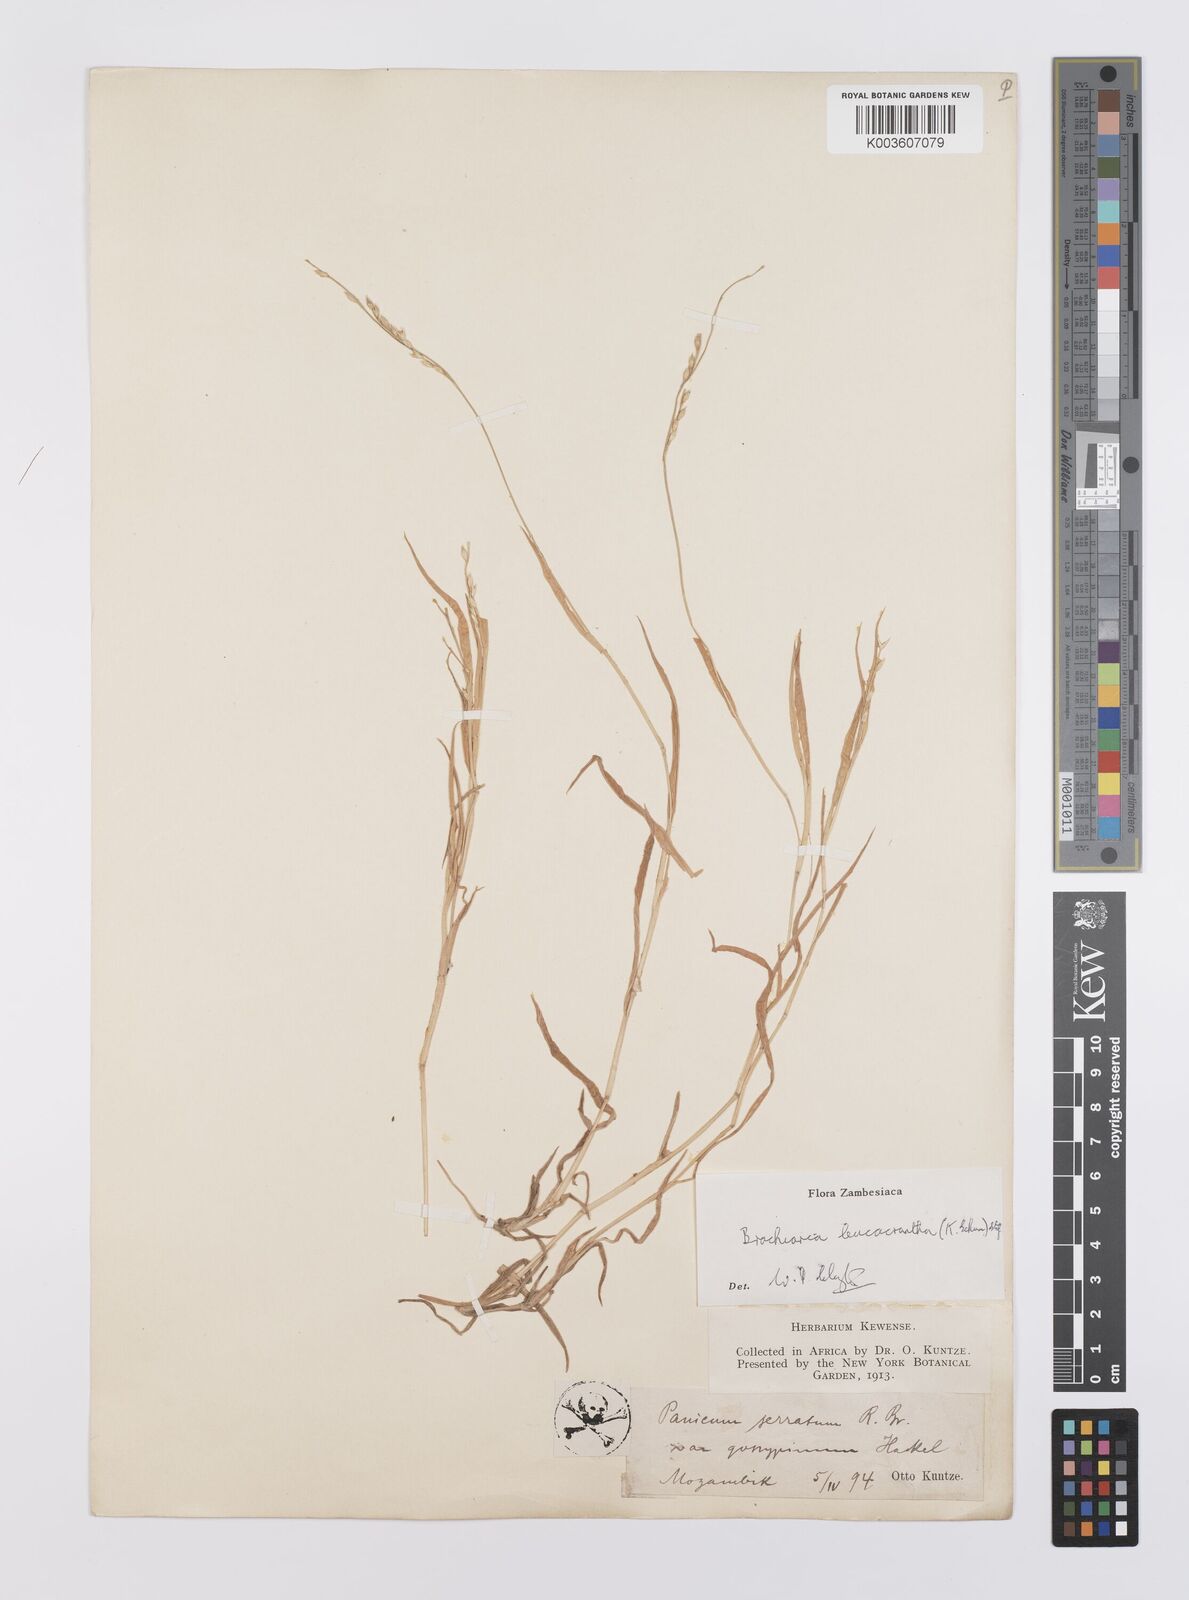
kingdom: Plantae
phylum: Tracheophyta
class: Liliopsida
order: Poales
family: Poaceae
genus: Urochloa
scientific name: Urochloa xantholeuca
